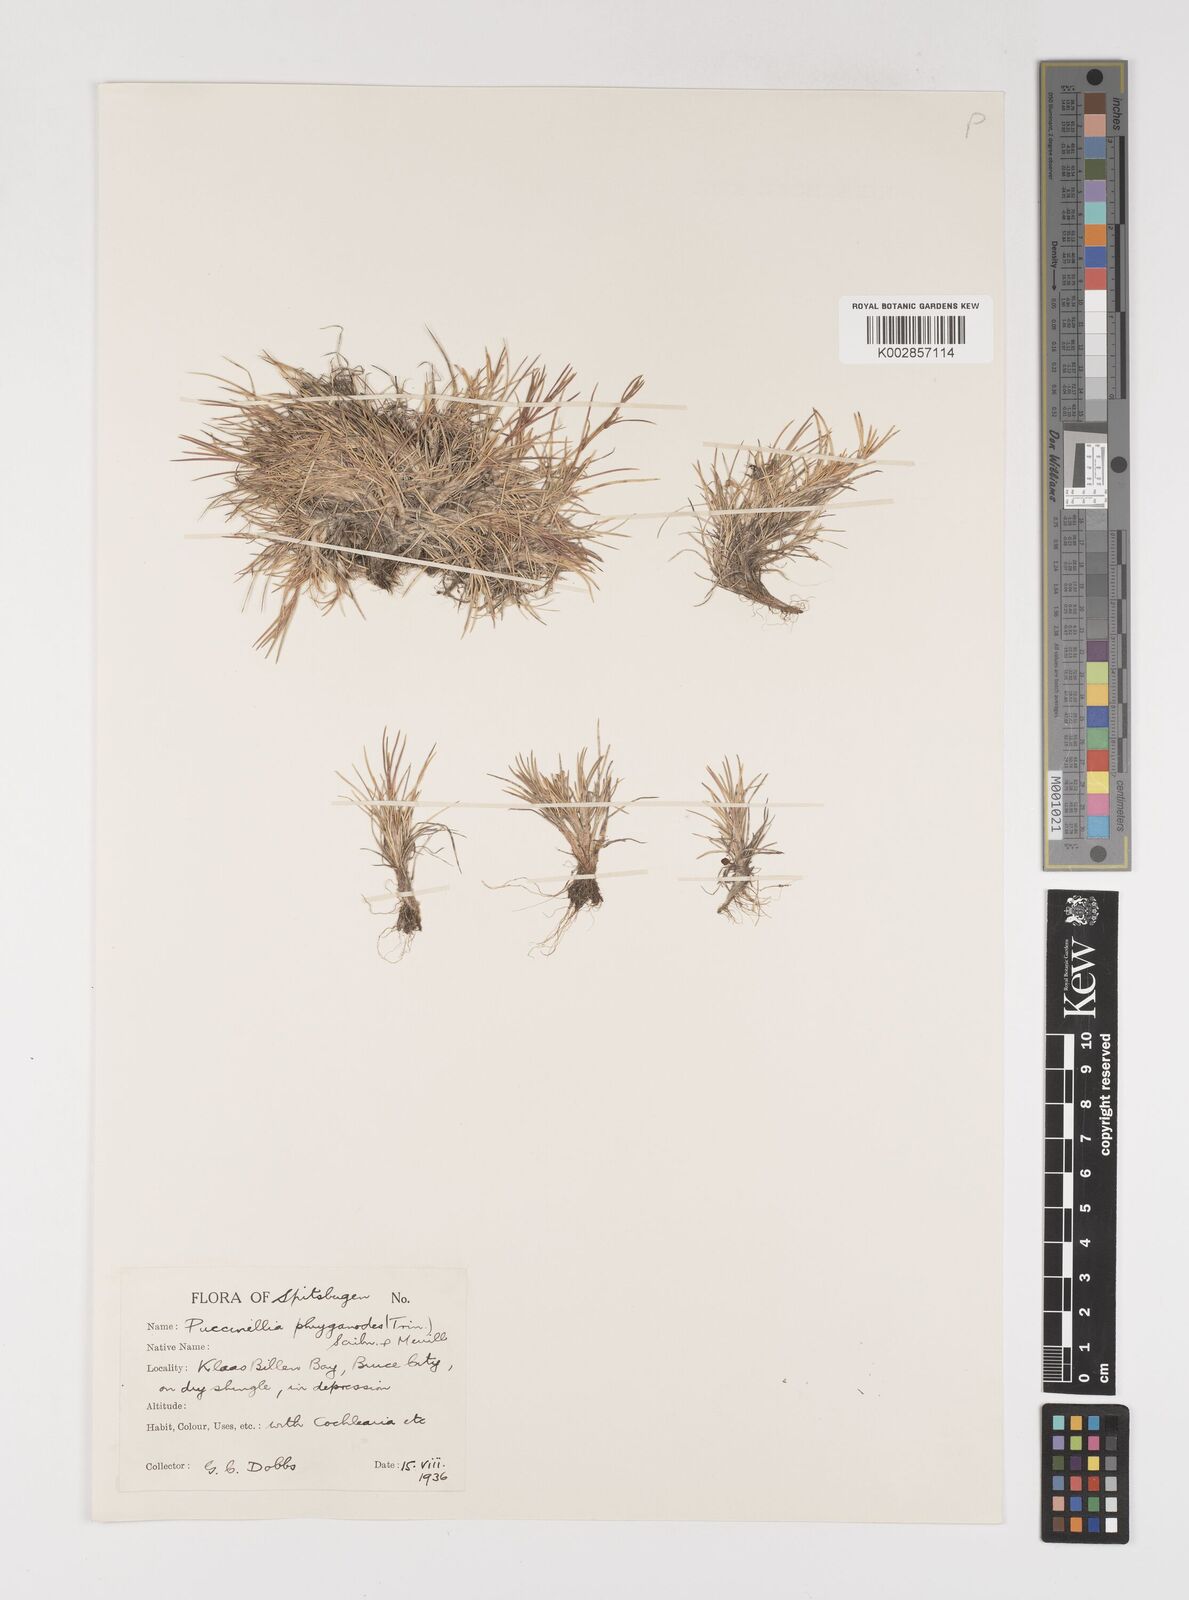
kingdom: Plantae
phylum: Tracheophyta
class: Liliopsida
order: Poales
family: Poaceae
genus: Puccinellia
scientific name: Puccinellia phryganodes
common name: Creeping alkaligrass
